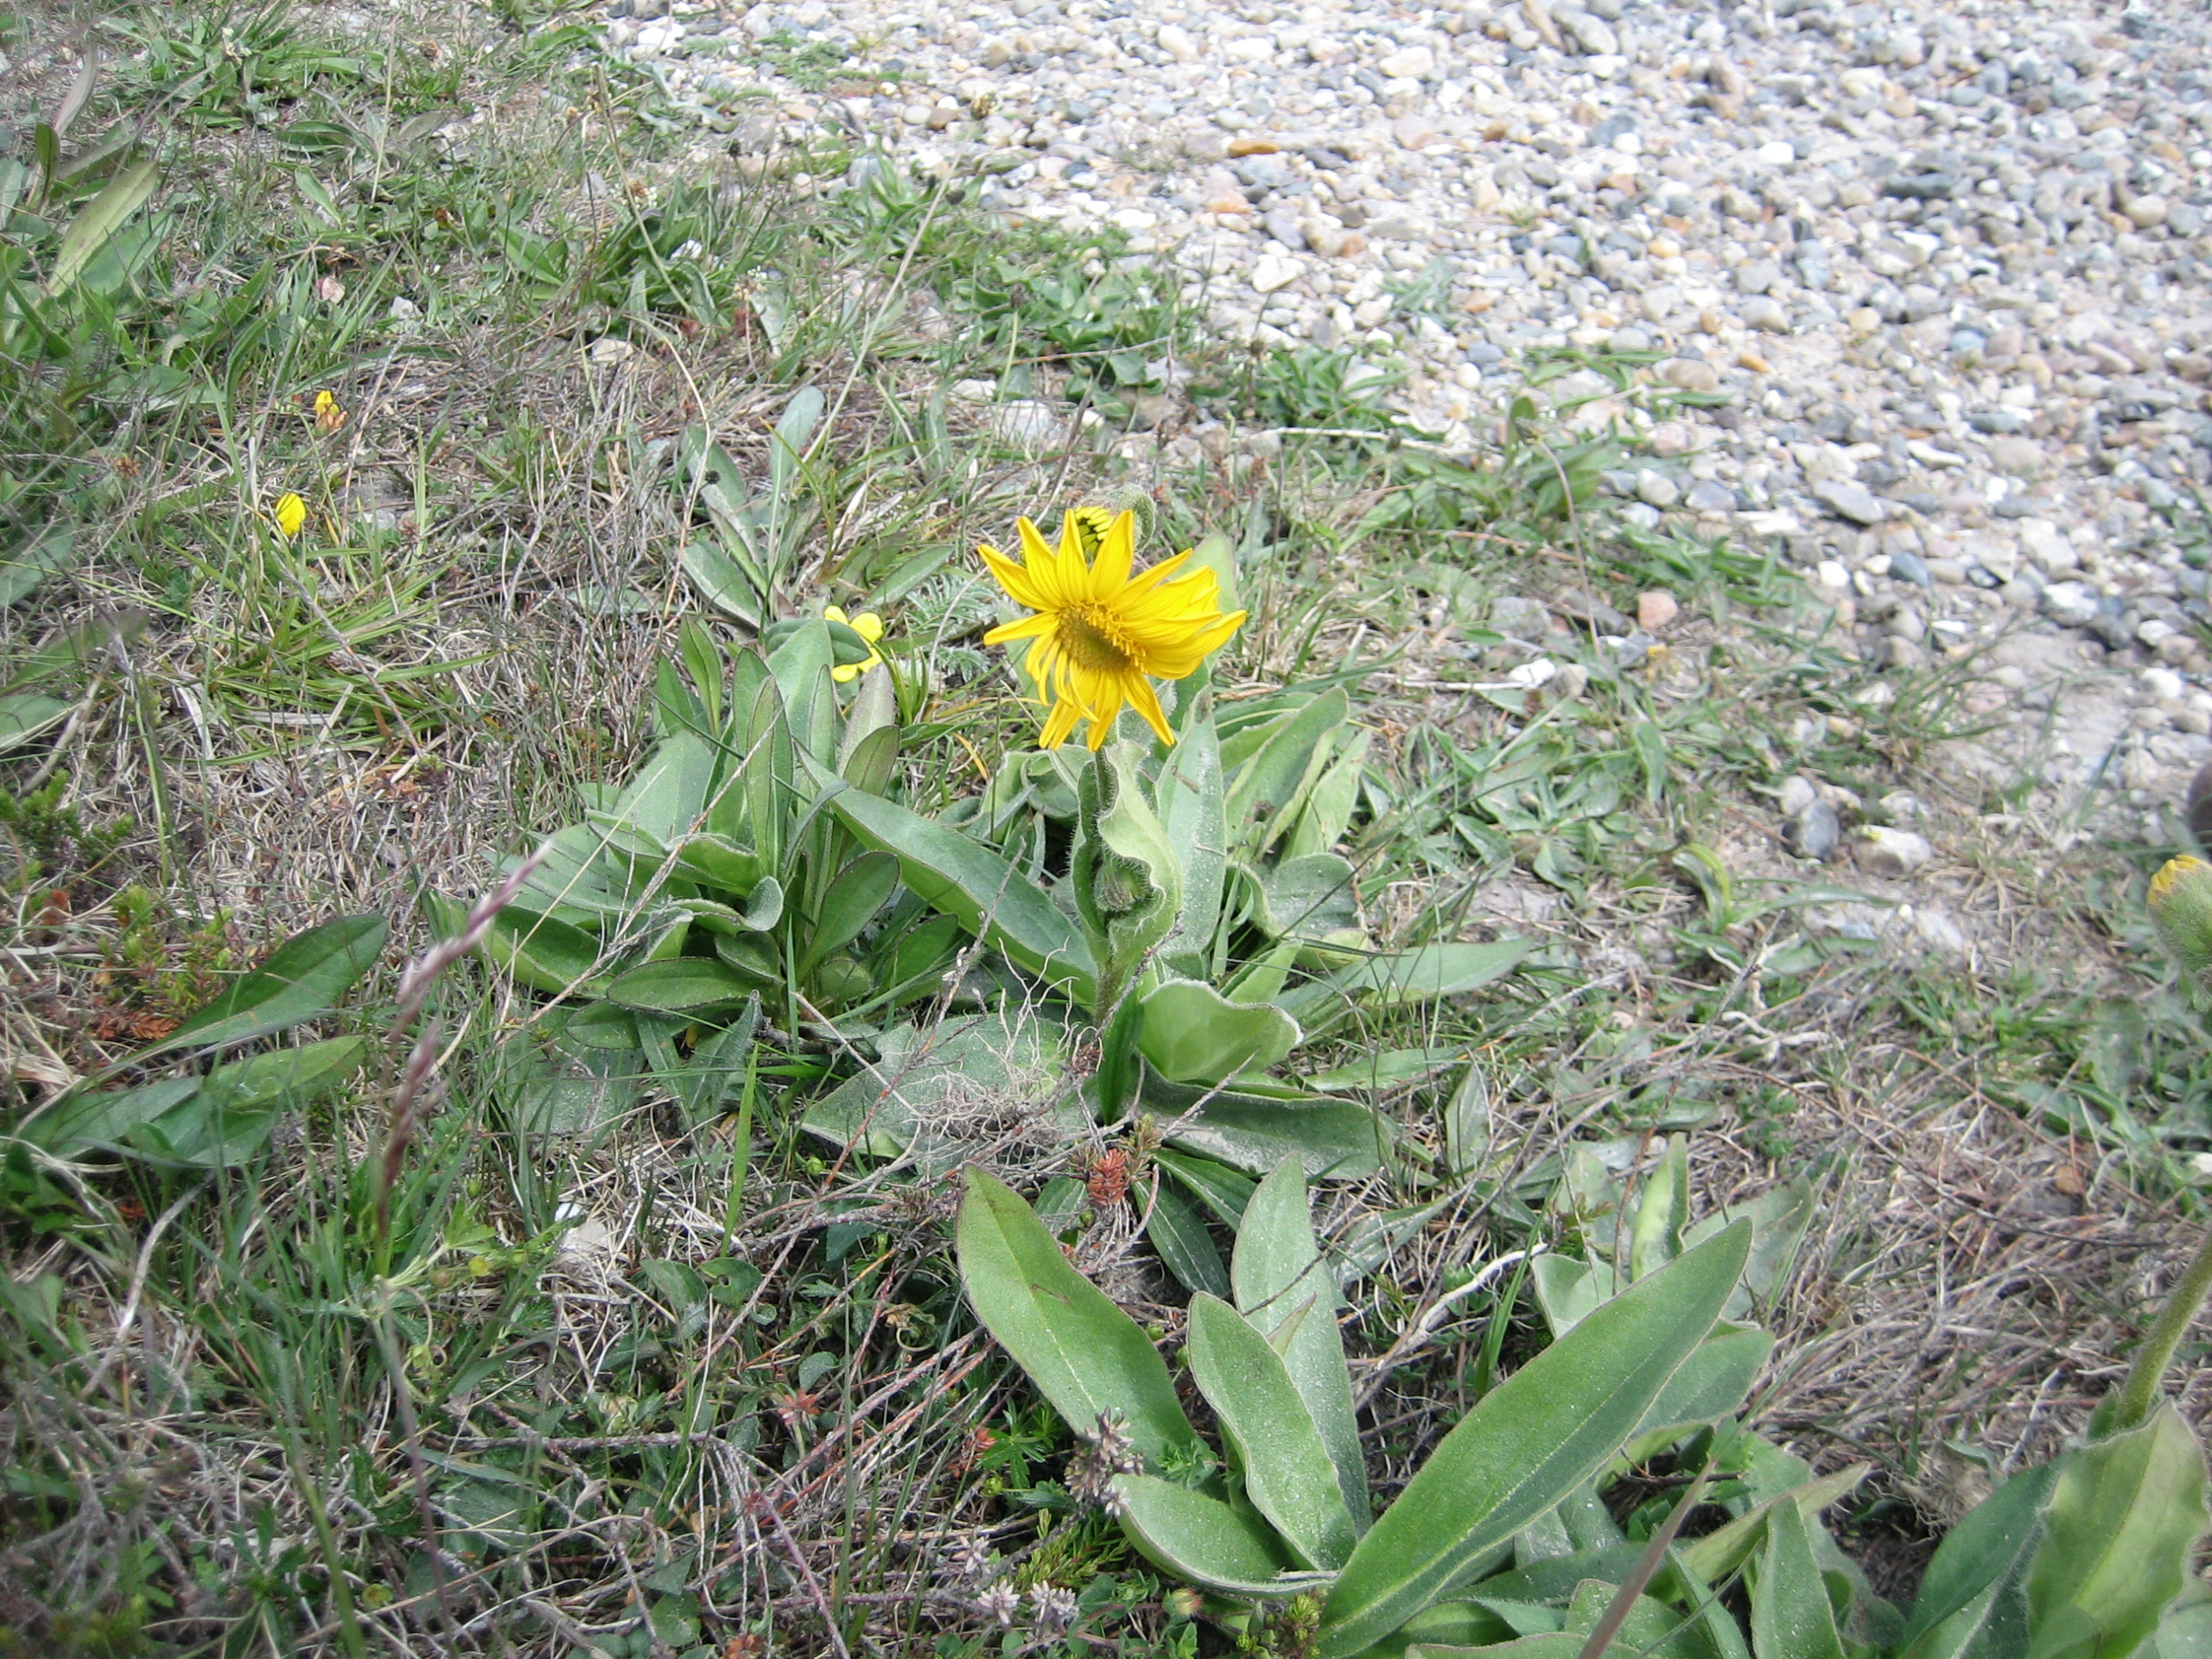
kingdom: Plantae
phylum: Tracheophyta
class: Magnoliopsida
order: Asterales
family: Asteraceae
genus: Arnica
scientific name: Arnica montana
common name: Guldblomme
